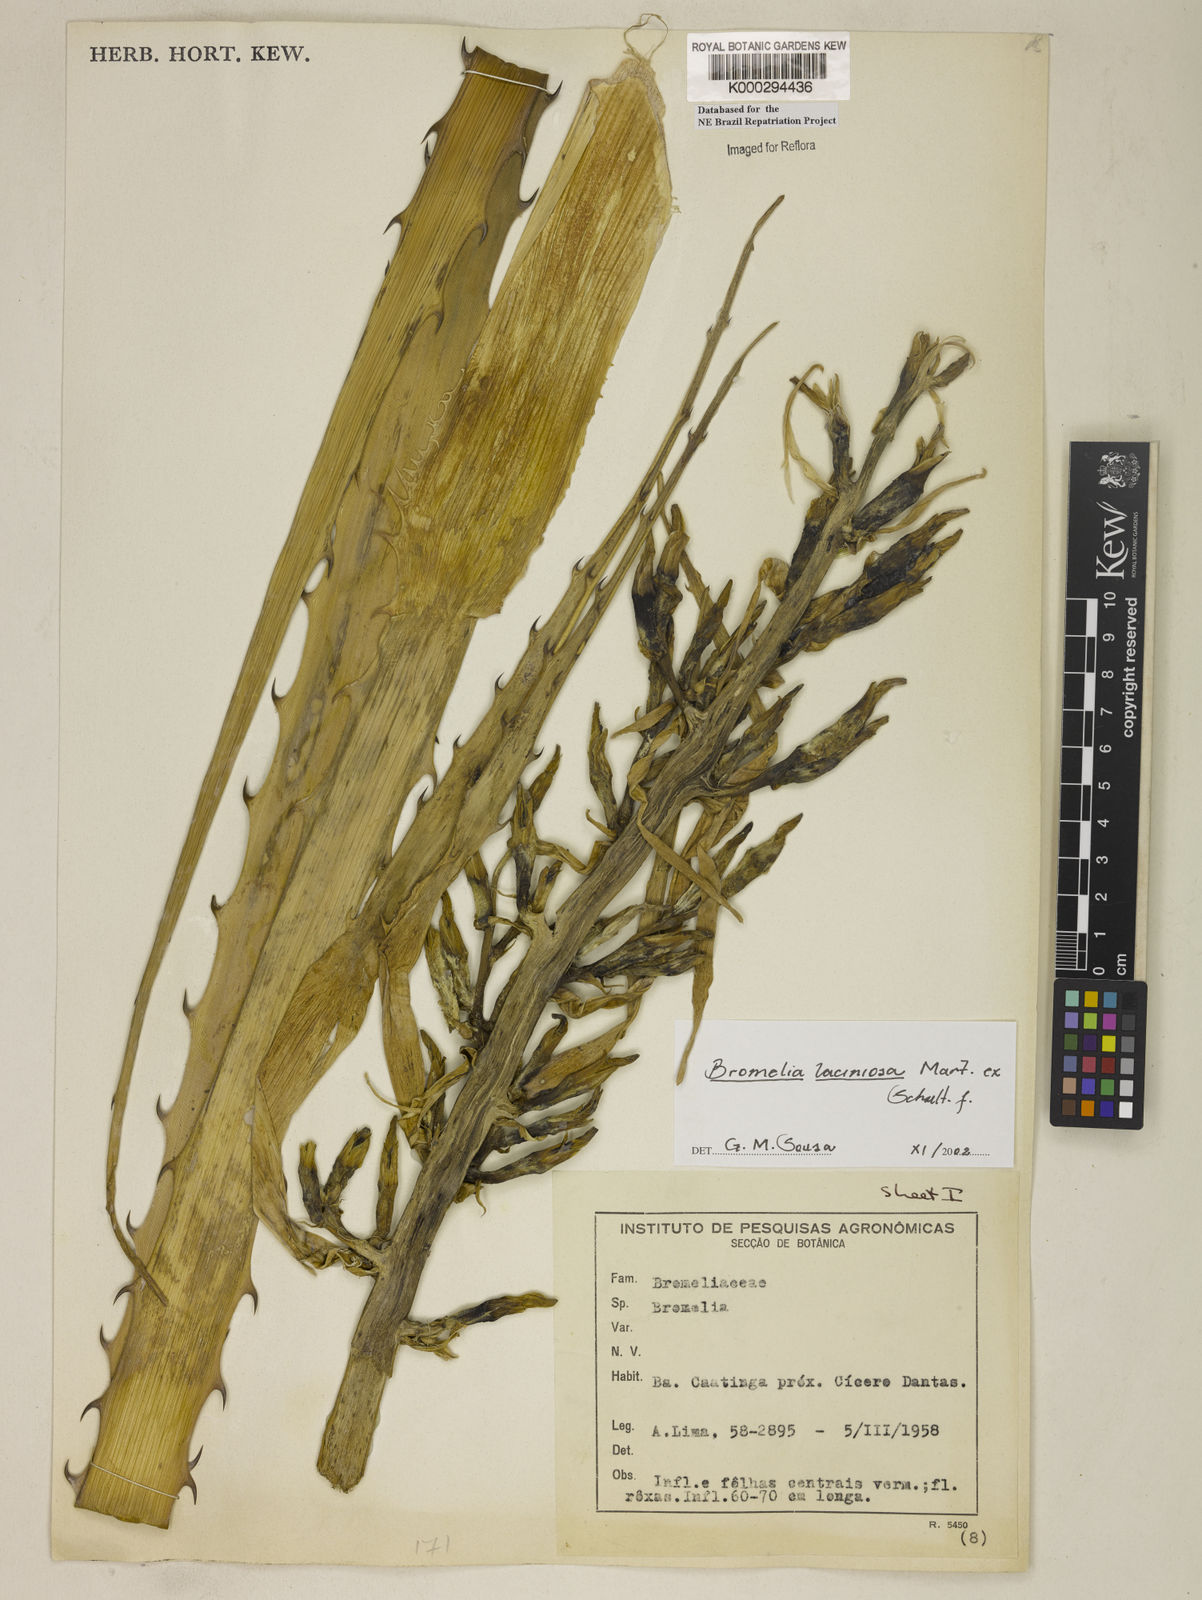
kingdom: Plantae
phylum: Tracheophyta
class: Liliopsida
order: Poales
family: Bromeliaceae
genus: Bromelia
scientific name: Bromelia laciniosa
